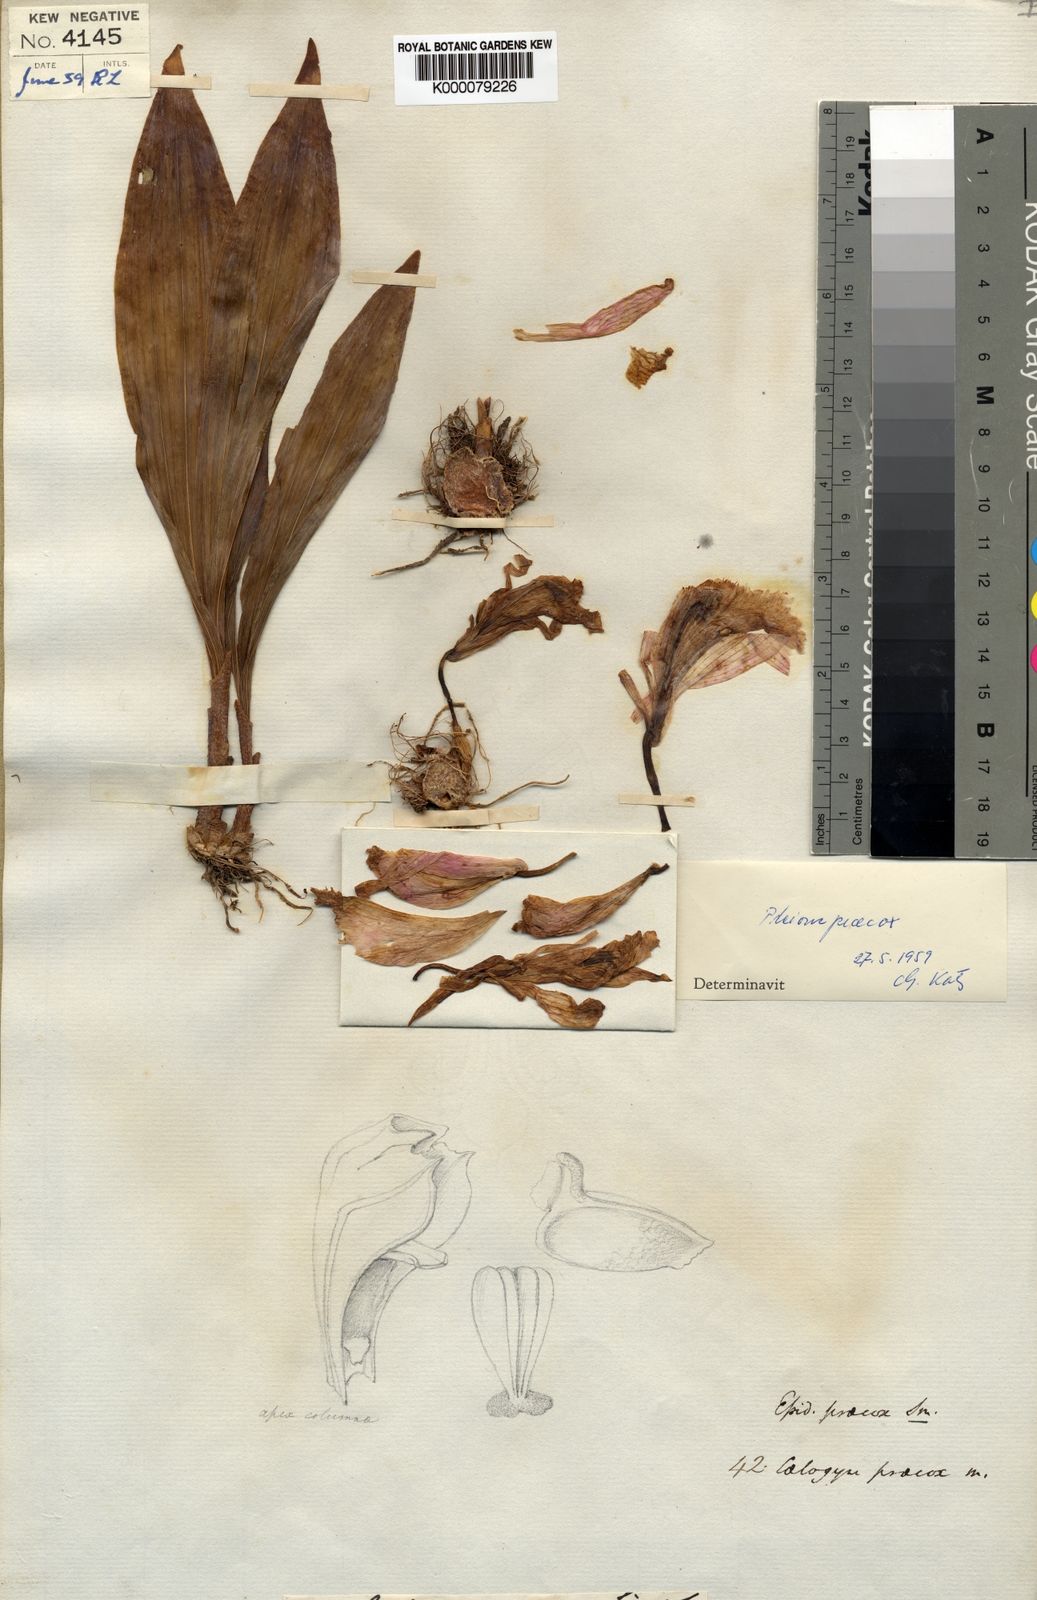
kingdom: Plantae
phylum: Tracheophyta
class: Liliopsida
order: Asparagales
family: Orchidaceae
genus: Pleione
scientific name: Pleione praecox
